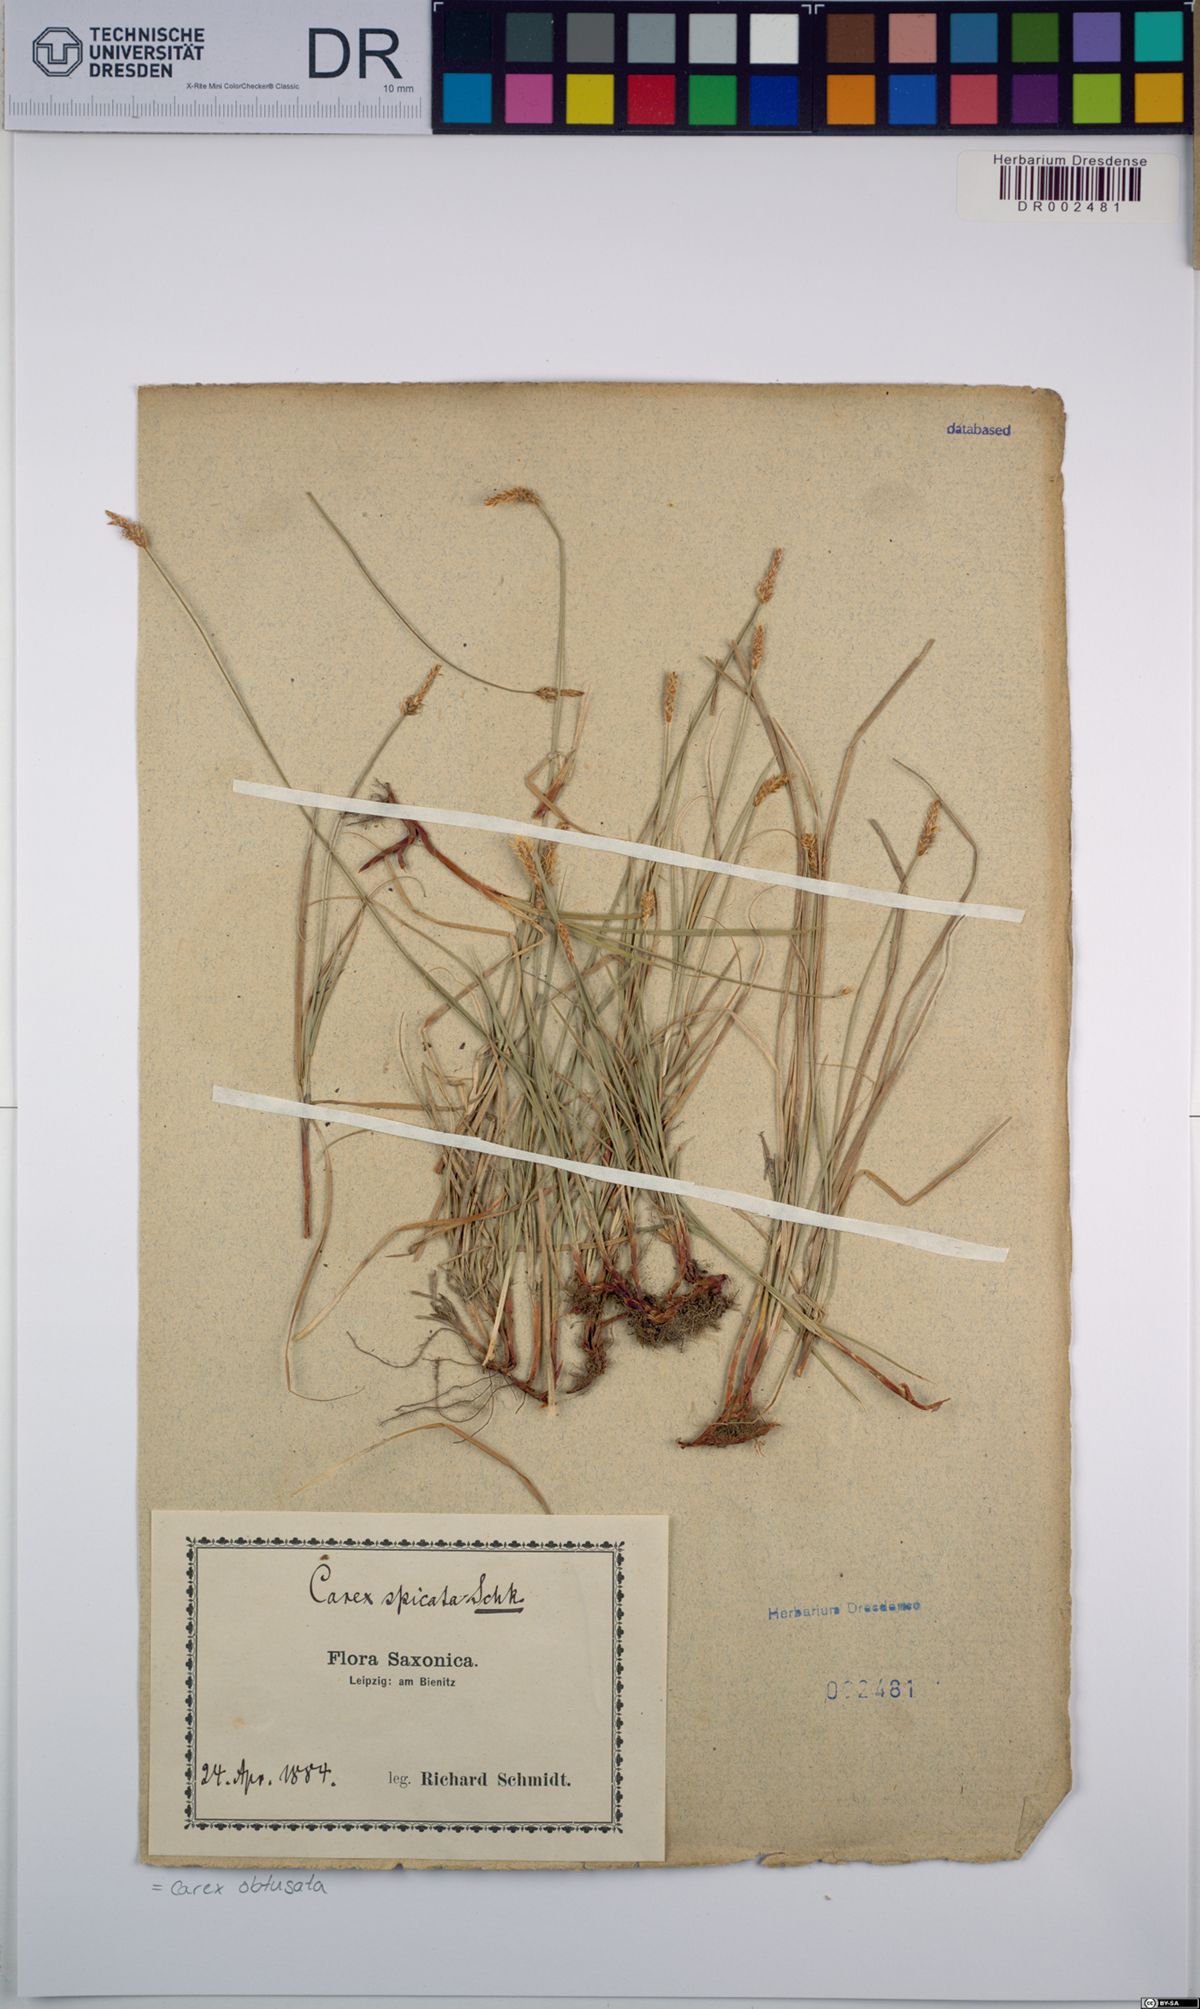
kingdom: Plantae
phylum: Tracheophyta
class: Liliopsida
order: Poales
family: Cyperaceae
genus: Carex
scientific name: Carex obtusata
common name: Blunt sedge
